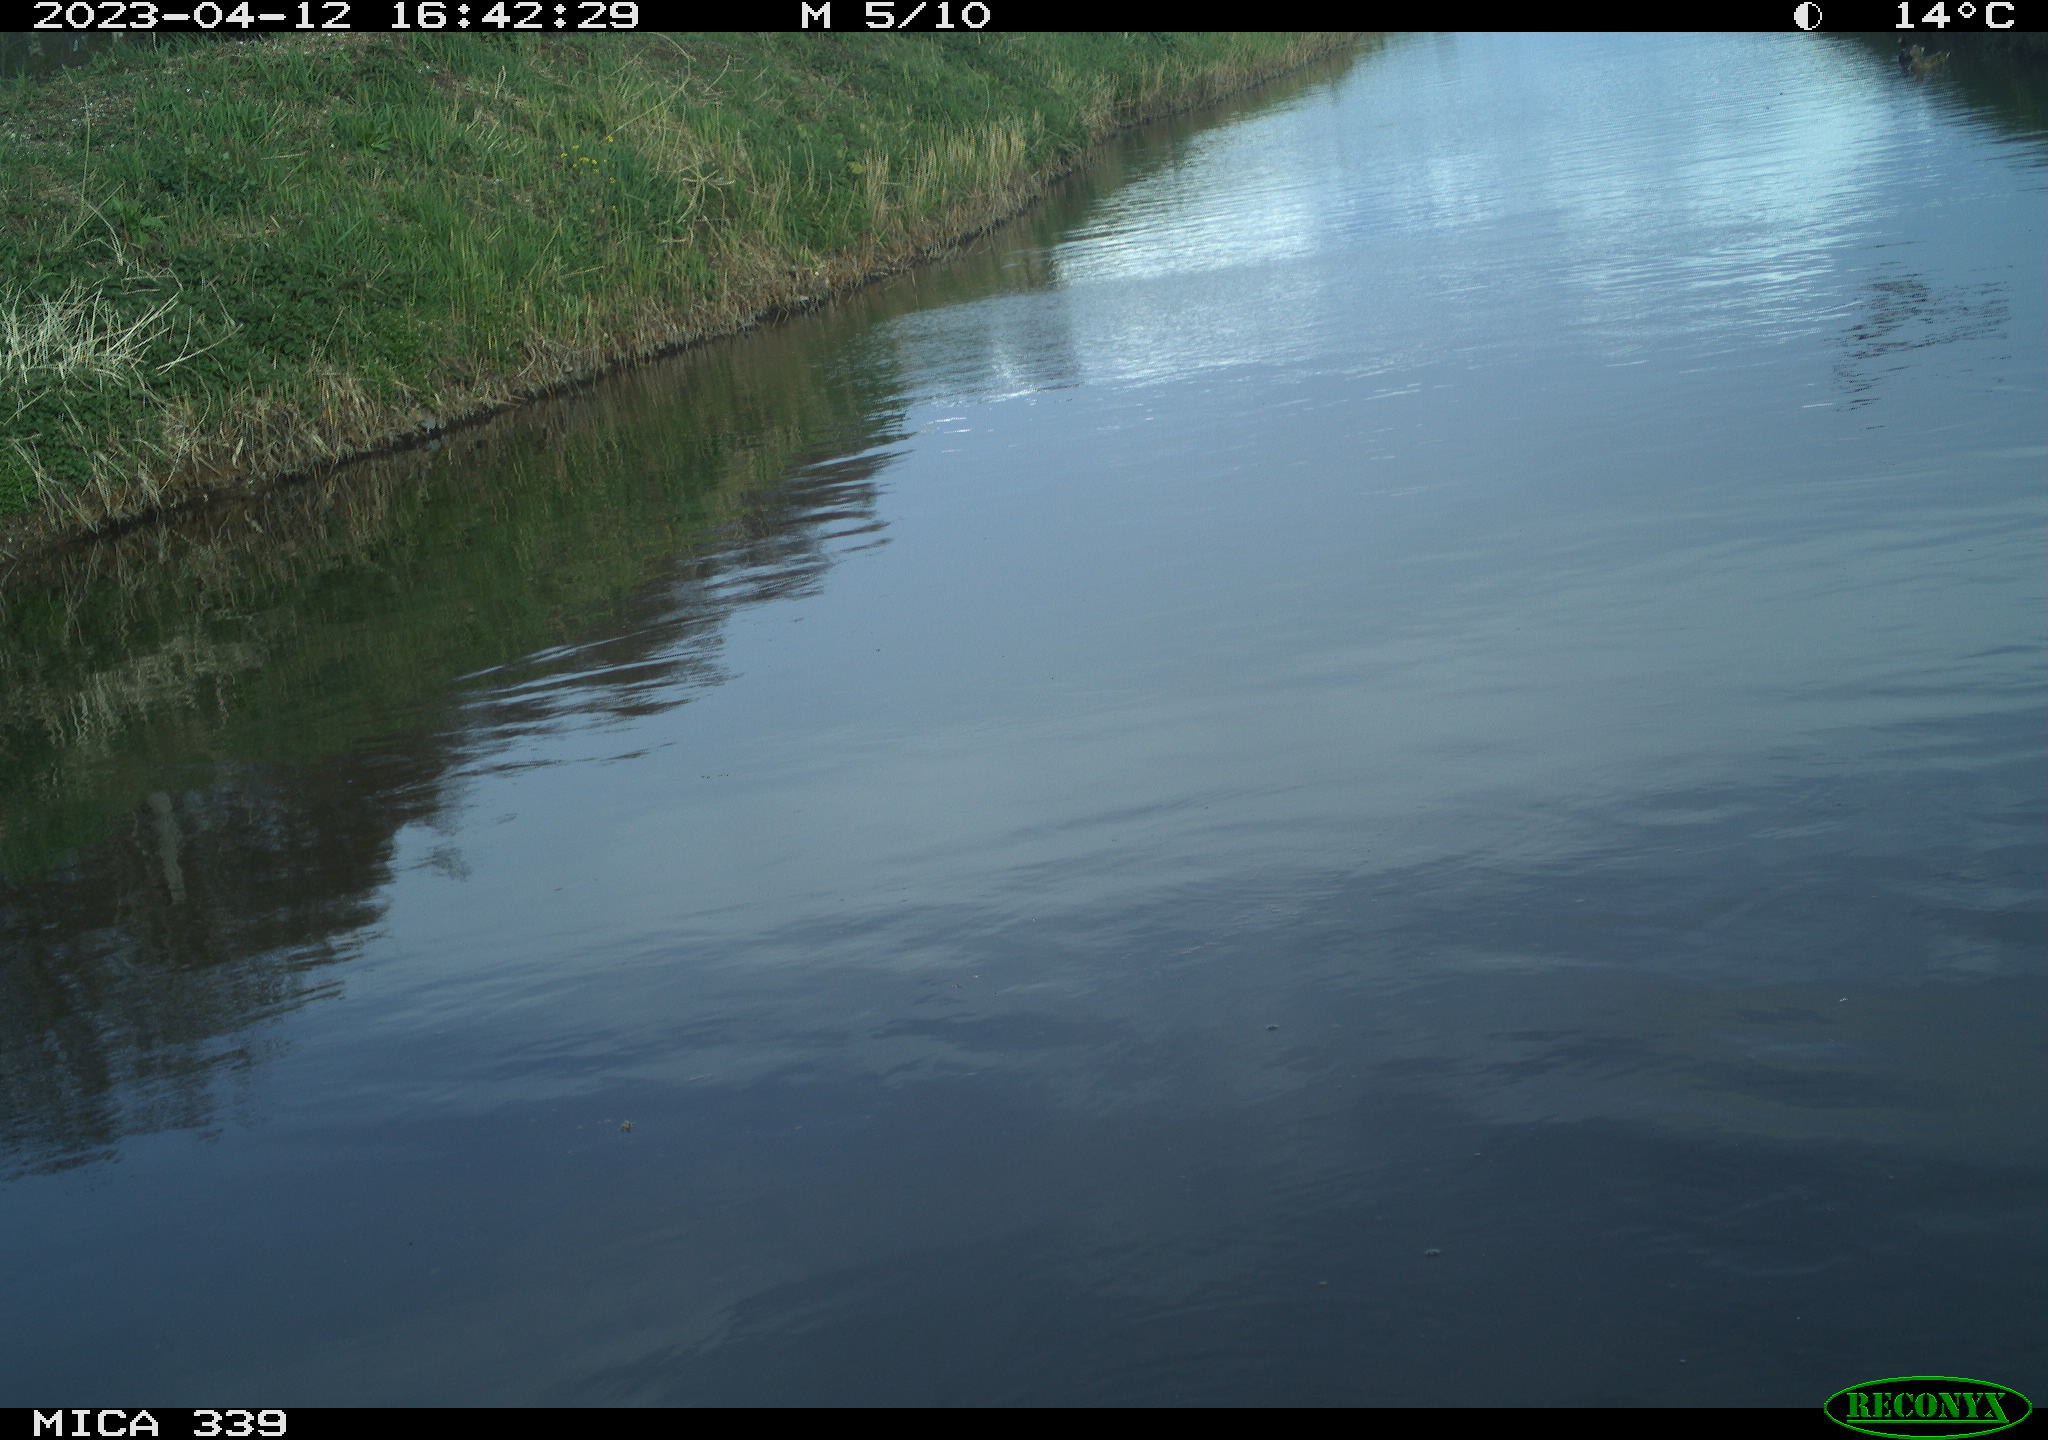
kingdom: Animalia
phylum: Chordata
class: Aves
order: Pelecaniformes
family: Ardeidae
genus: Ardea
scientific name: Ardea
